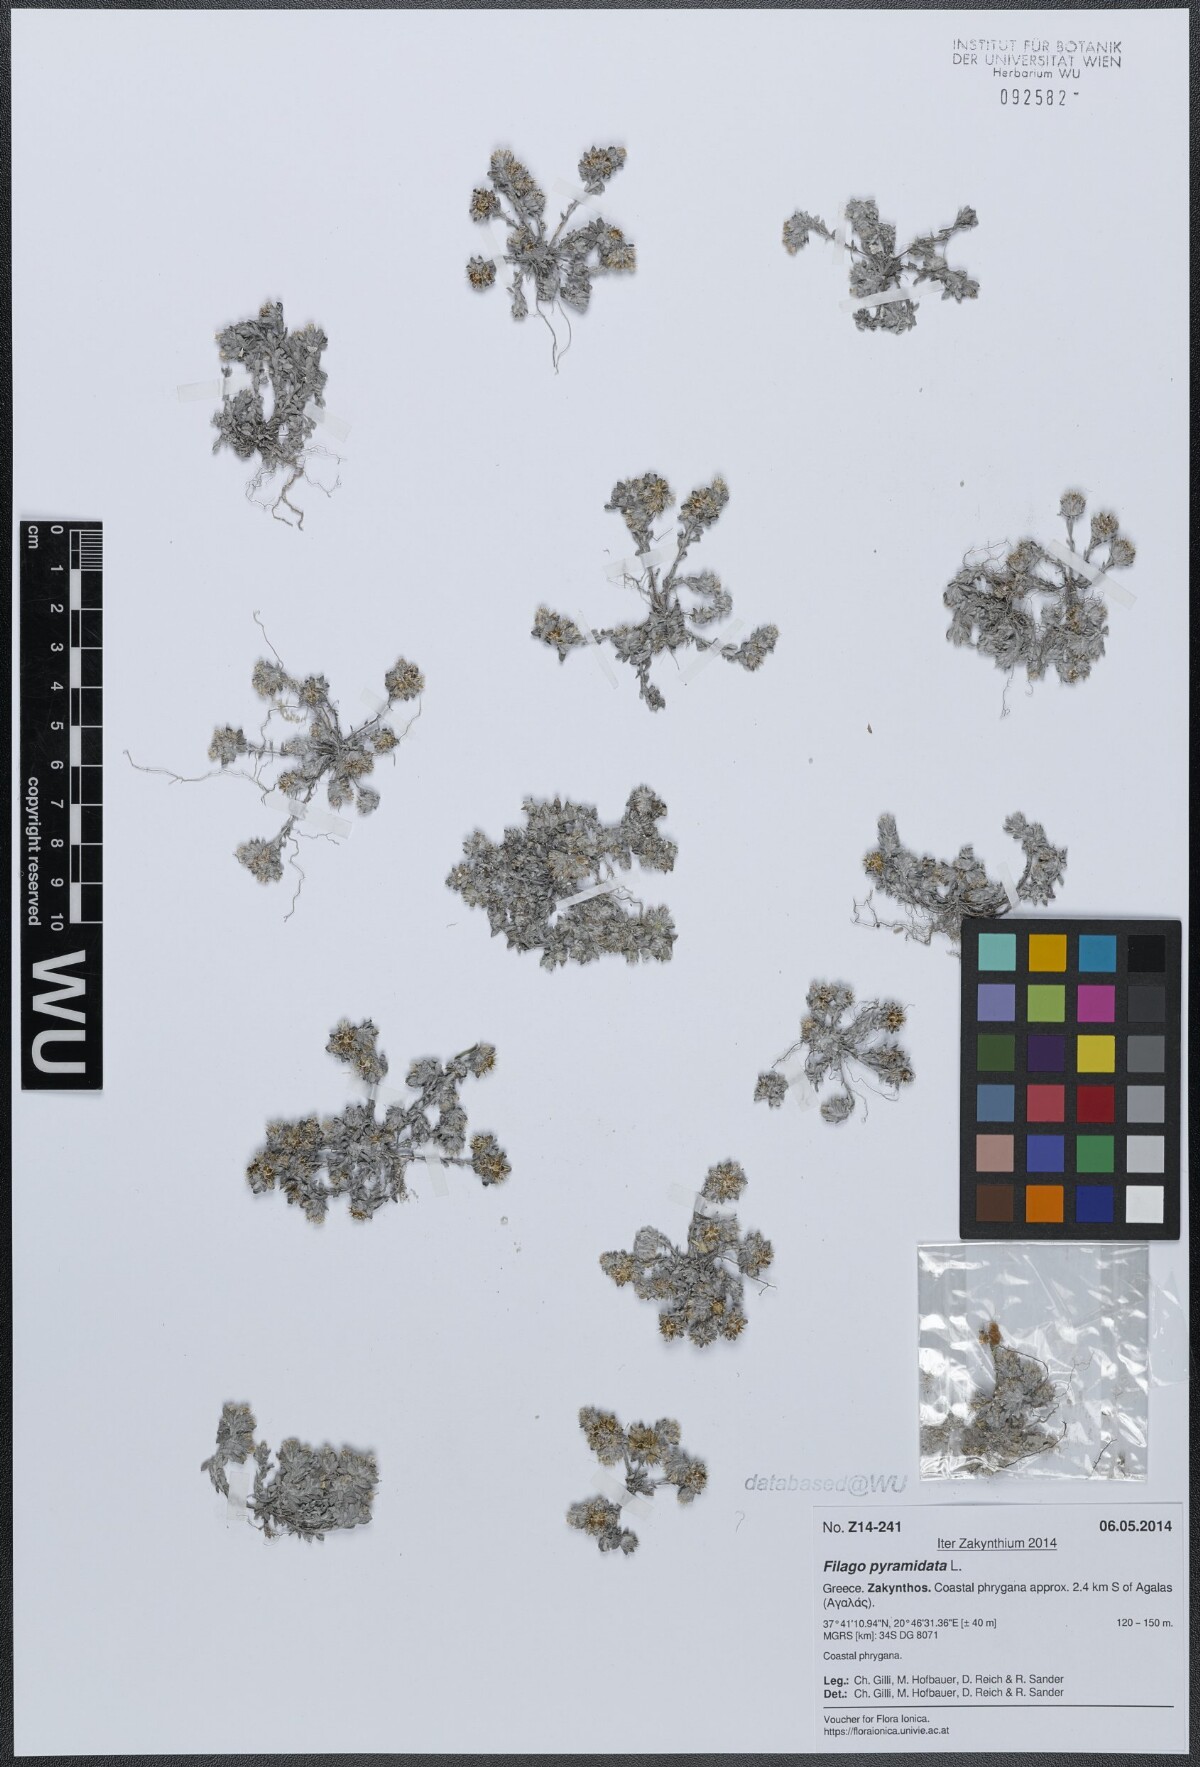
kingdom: Plantae
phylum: Tracheophyta
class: Magnoliopsida
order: Asterales
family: Asteraceae
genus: Filago
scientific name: Filago pyramidata
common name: Broad-leaved cudweed
